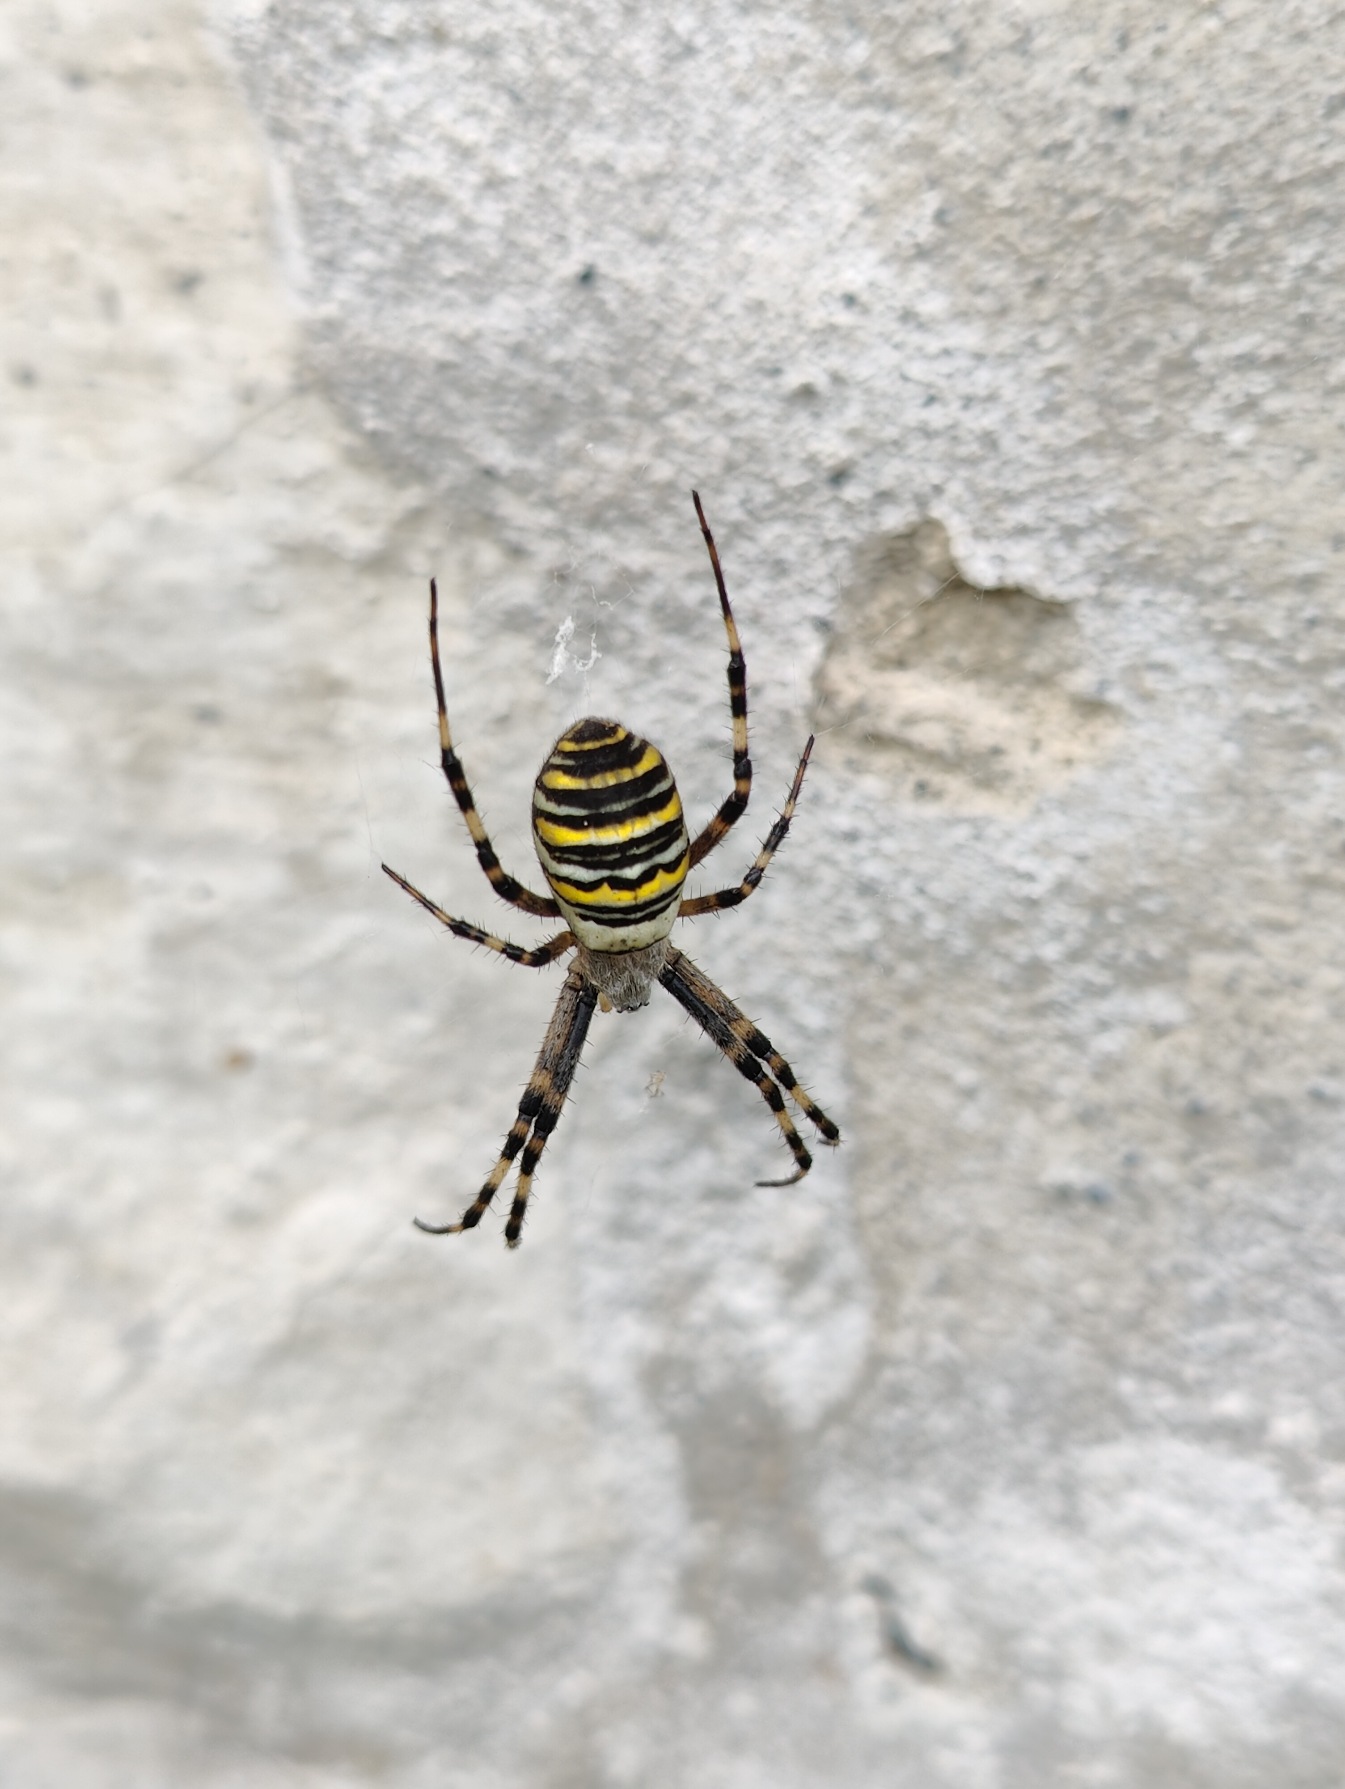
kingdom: Animalia
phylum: Arthropoda
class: Arachnida
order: Araneae
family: Araneidae
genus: Argiope
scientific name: Argiope bruennichi
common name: Hvepseedderkop
